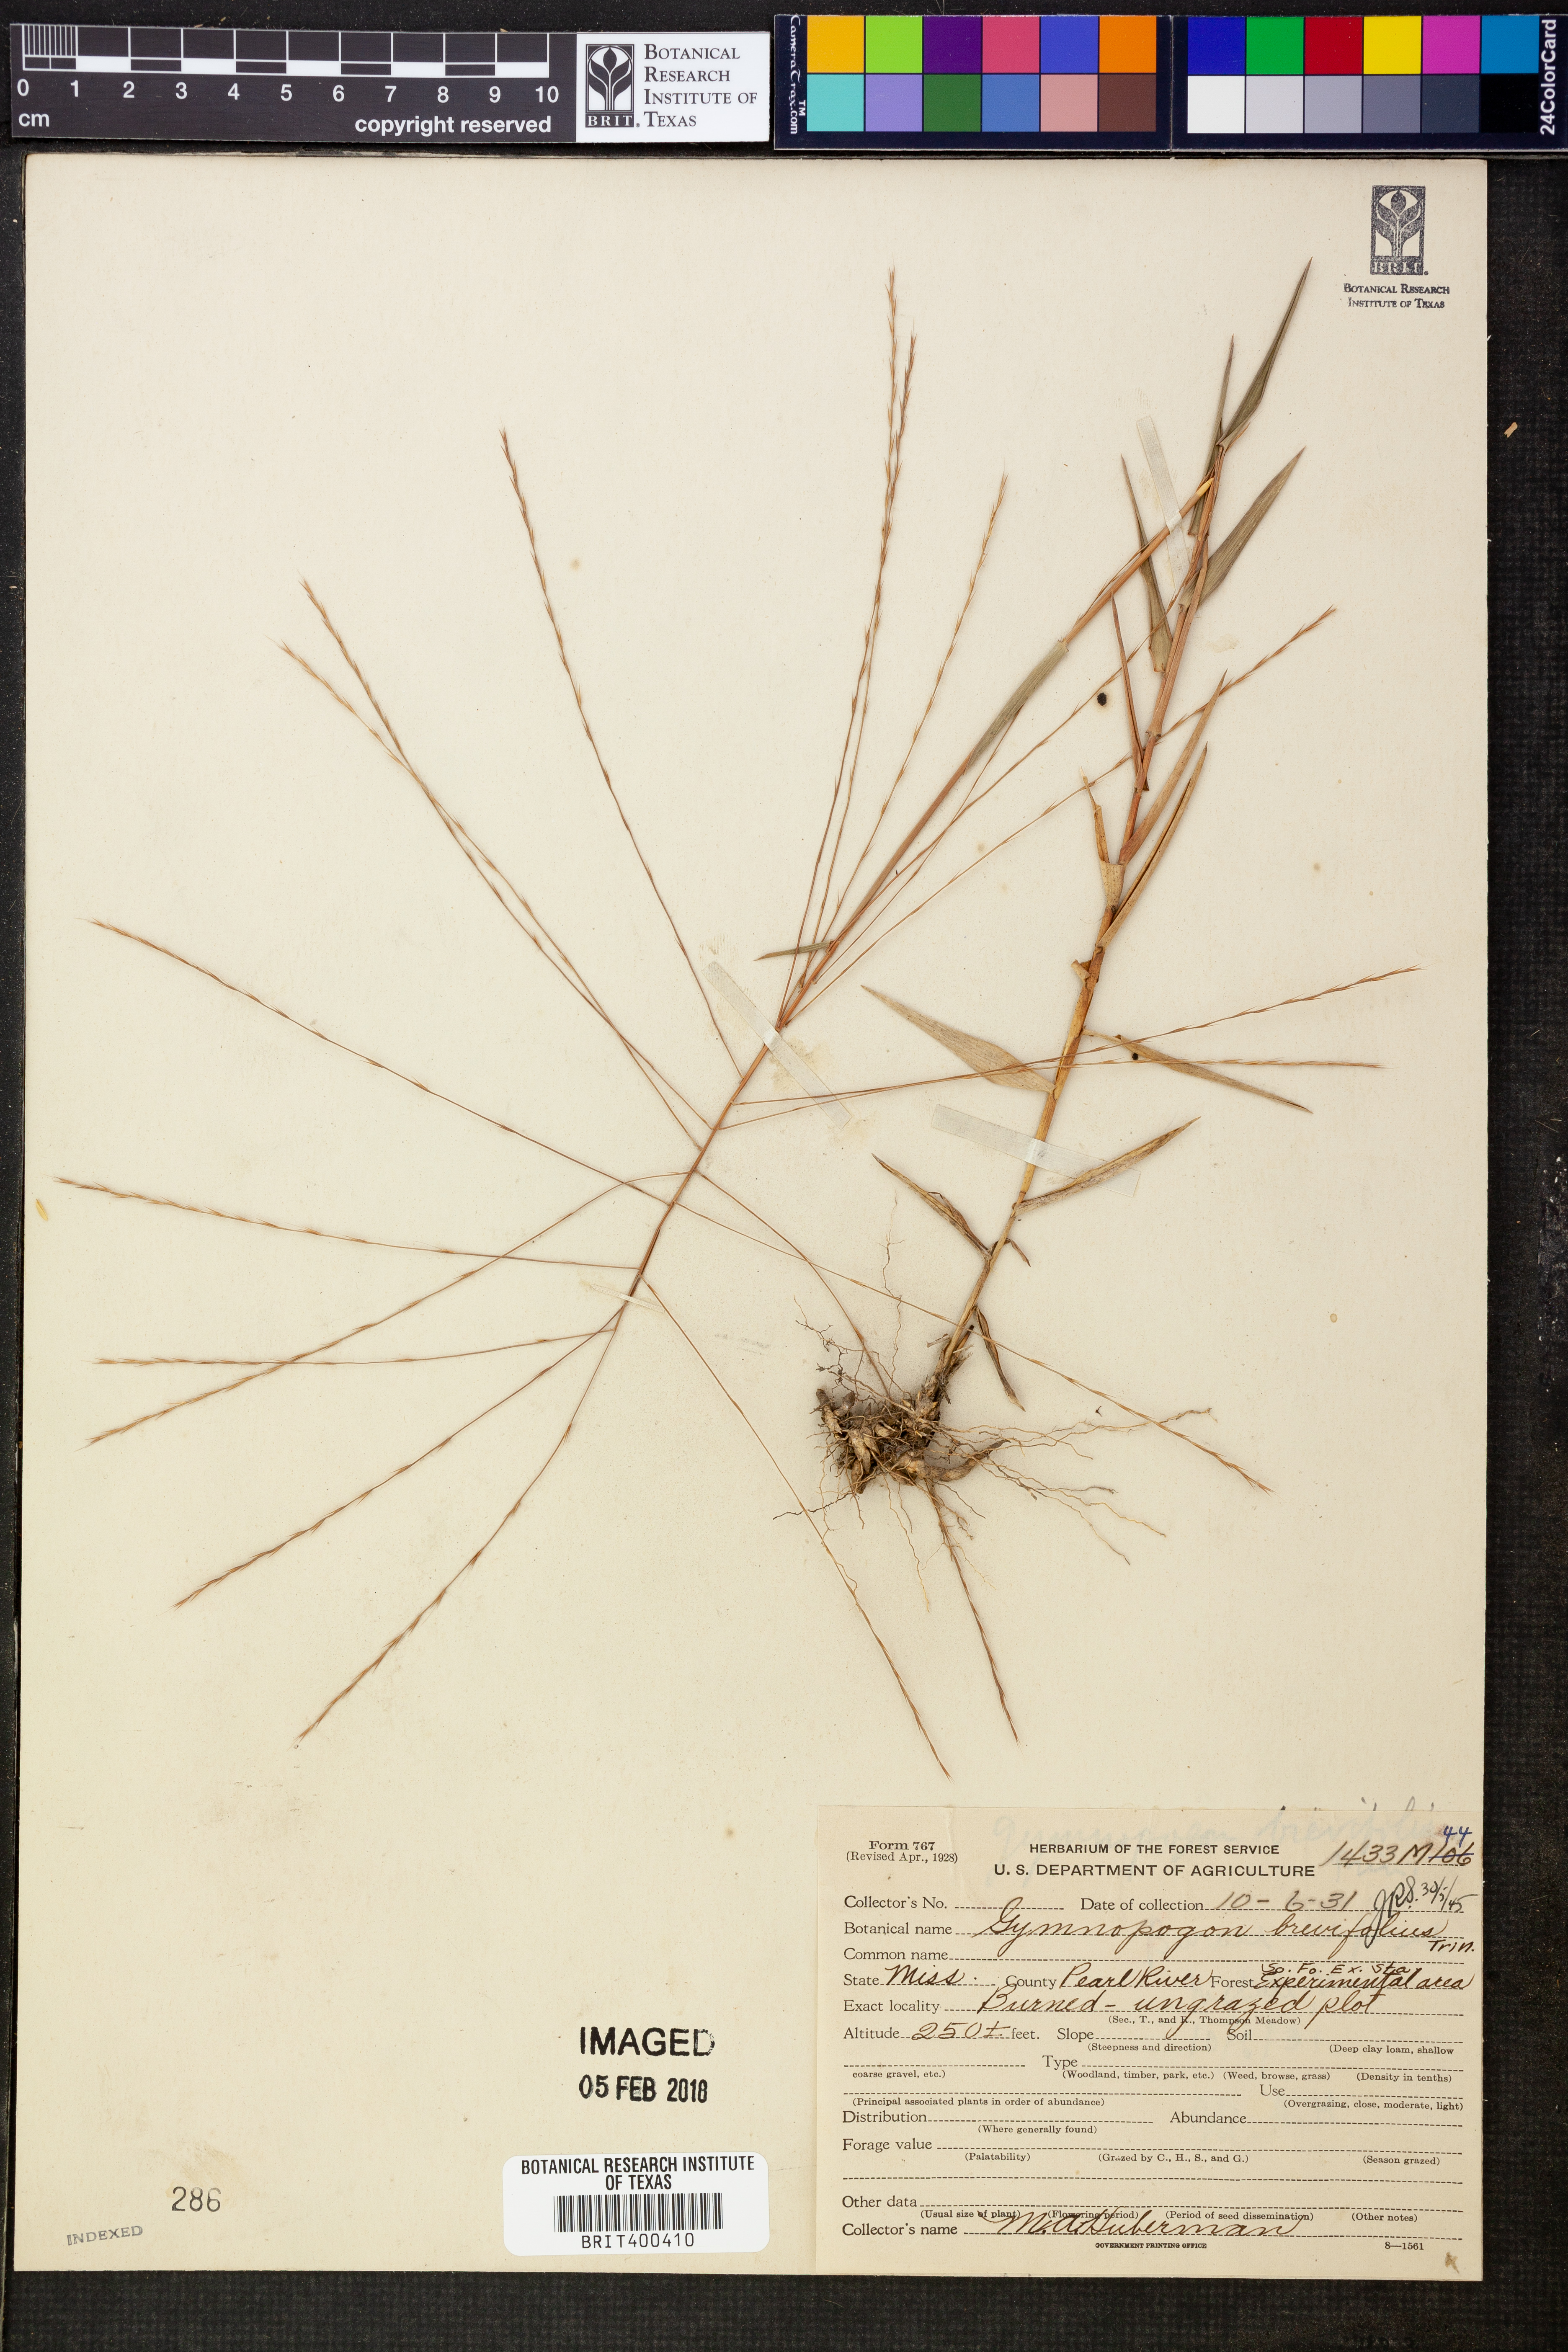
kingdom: Plantae
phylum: Tracheophyta
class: Liliopsida
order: Poales
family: Poaceae
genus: Gymnopogon
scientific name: Gymnopogon brevifolius
